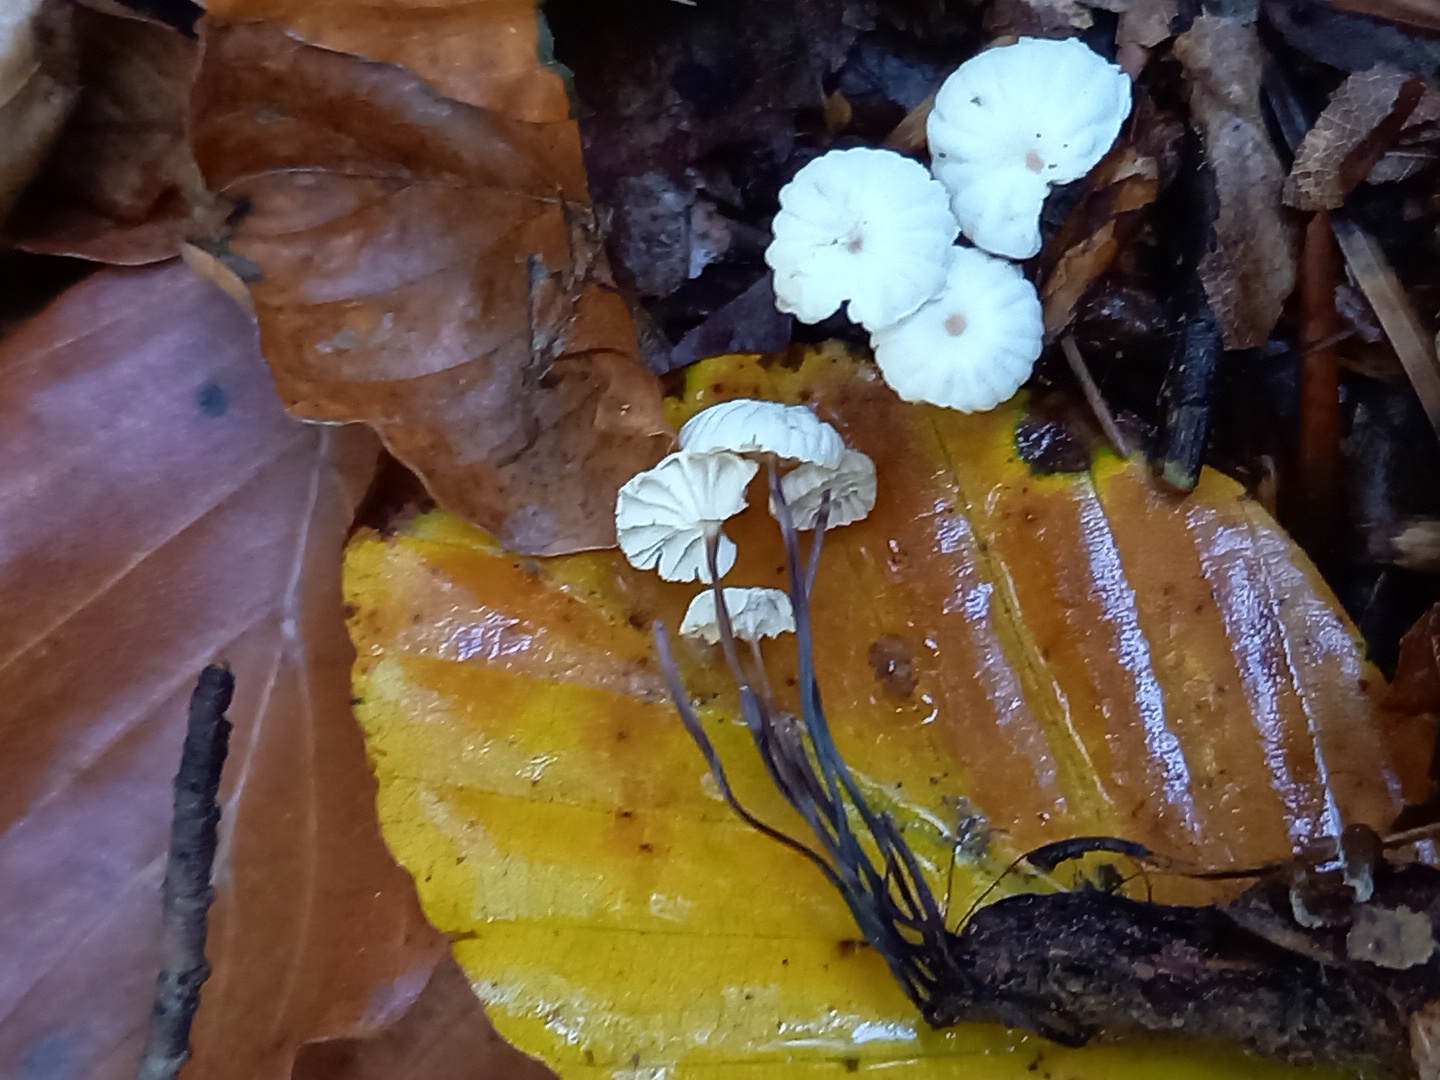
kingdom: Fungi
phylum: Basidiomycota
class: Agaricomycetes
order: Agaricales
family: Marasmiaceae
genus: Marasmius
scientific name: Marasmius rotula
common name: hjul-bruskhat
